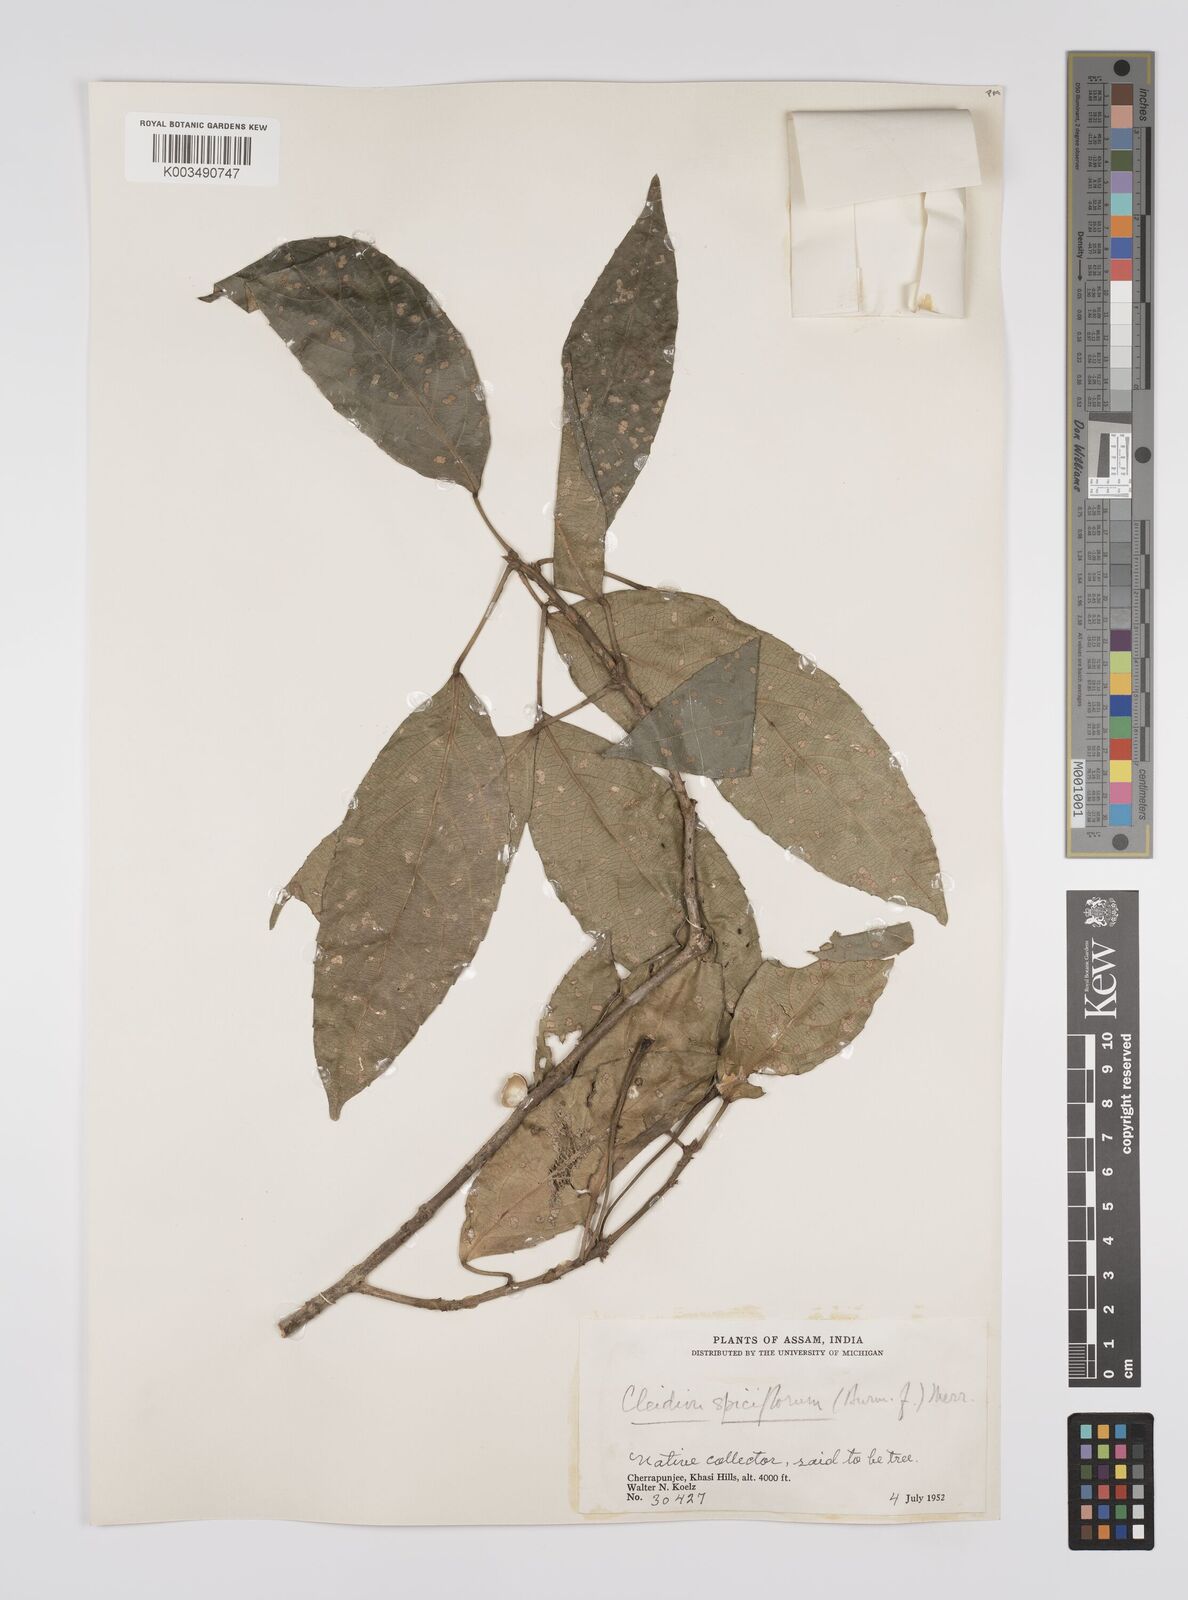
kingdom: Plantae
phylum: Tracheophyta
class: Magnoliopsida
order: Malpighiales
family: Euphorbiaceae
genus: Acalypha
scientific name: Acalypha spiciflora
